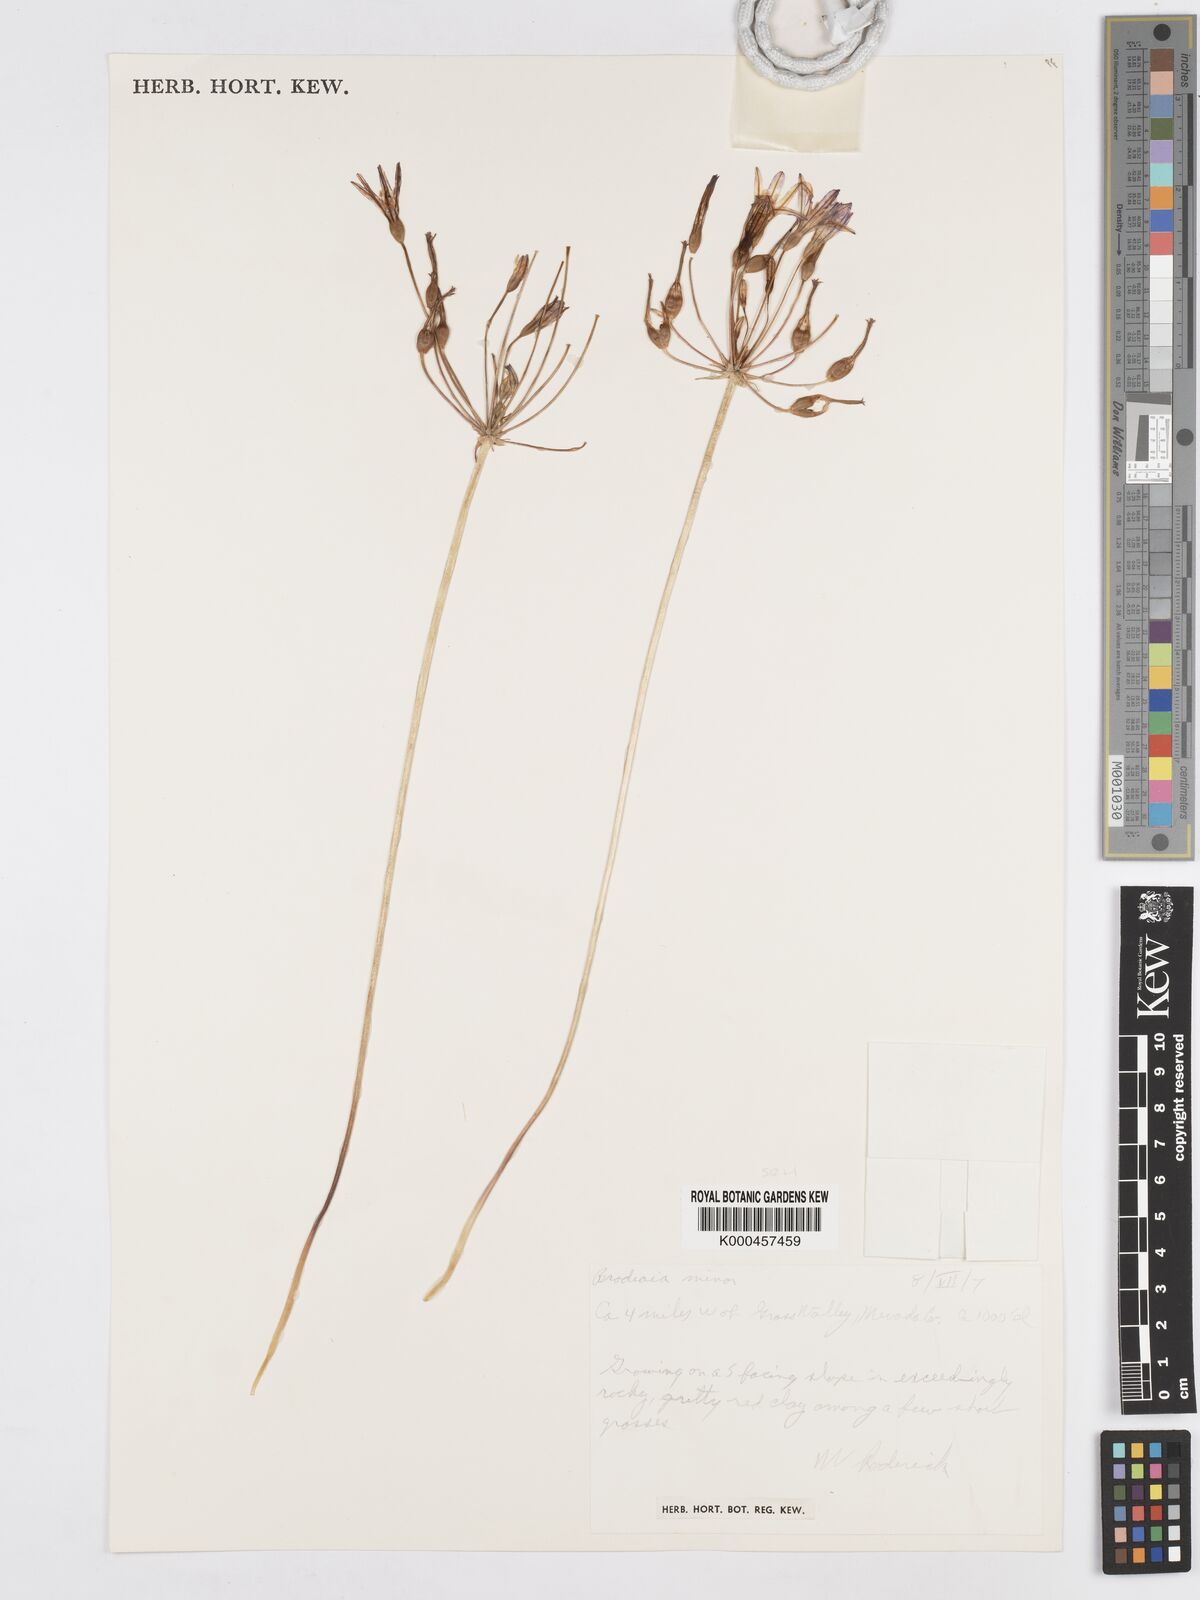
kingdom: Plantae
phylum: Tracheophyta
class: Liliopsida
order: Asparagales
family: Asparagaceae
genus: Brodiaea
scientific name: Brodiaea minor
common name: Dwarf brodiaea
